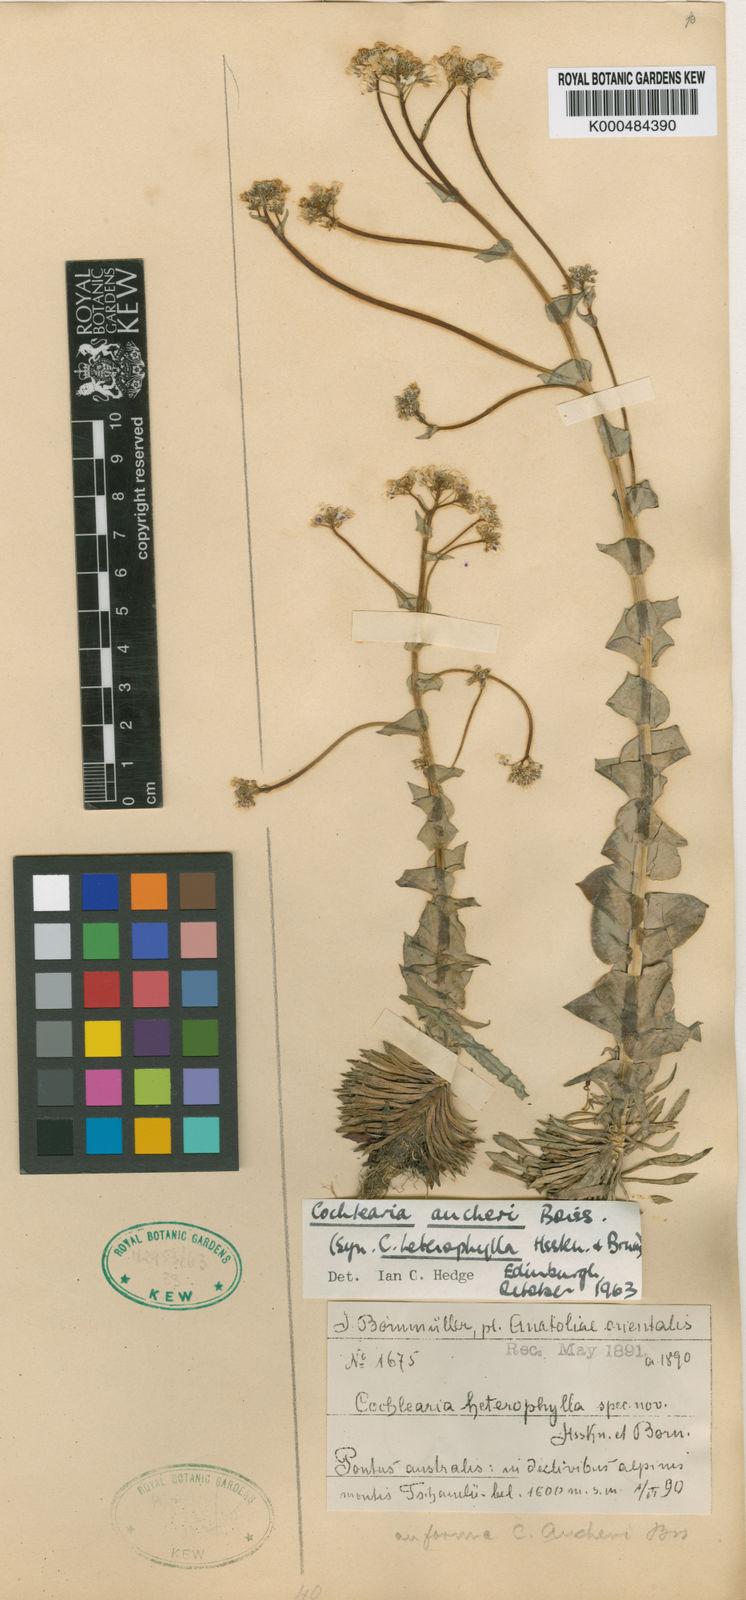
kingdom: Plantae
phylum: Tracheophyta
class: Magnoliopsida
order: Brassicales
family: Brassicaceae
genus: Pseudosempervivum
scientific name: Pseudosempervivum aucheri
